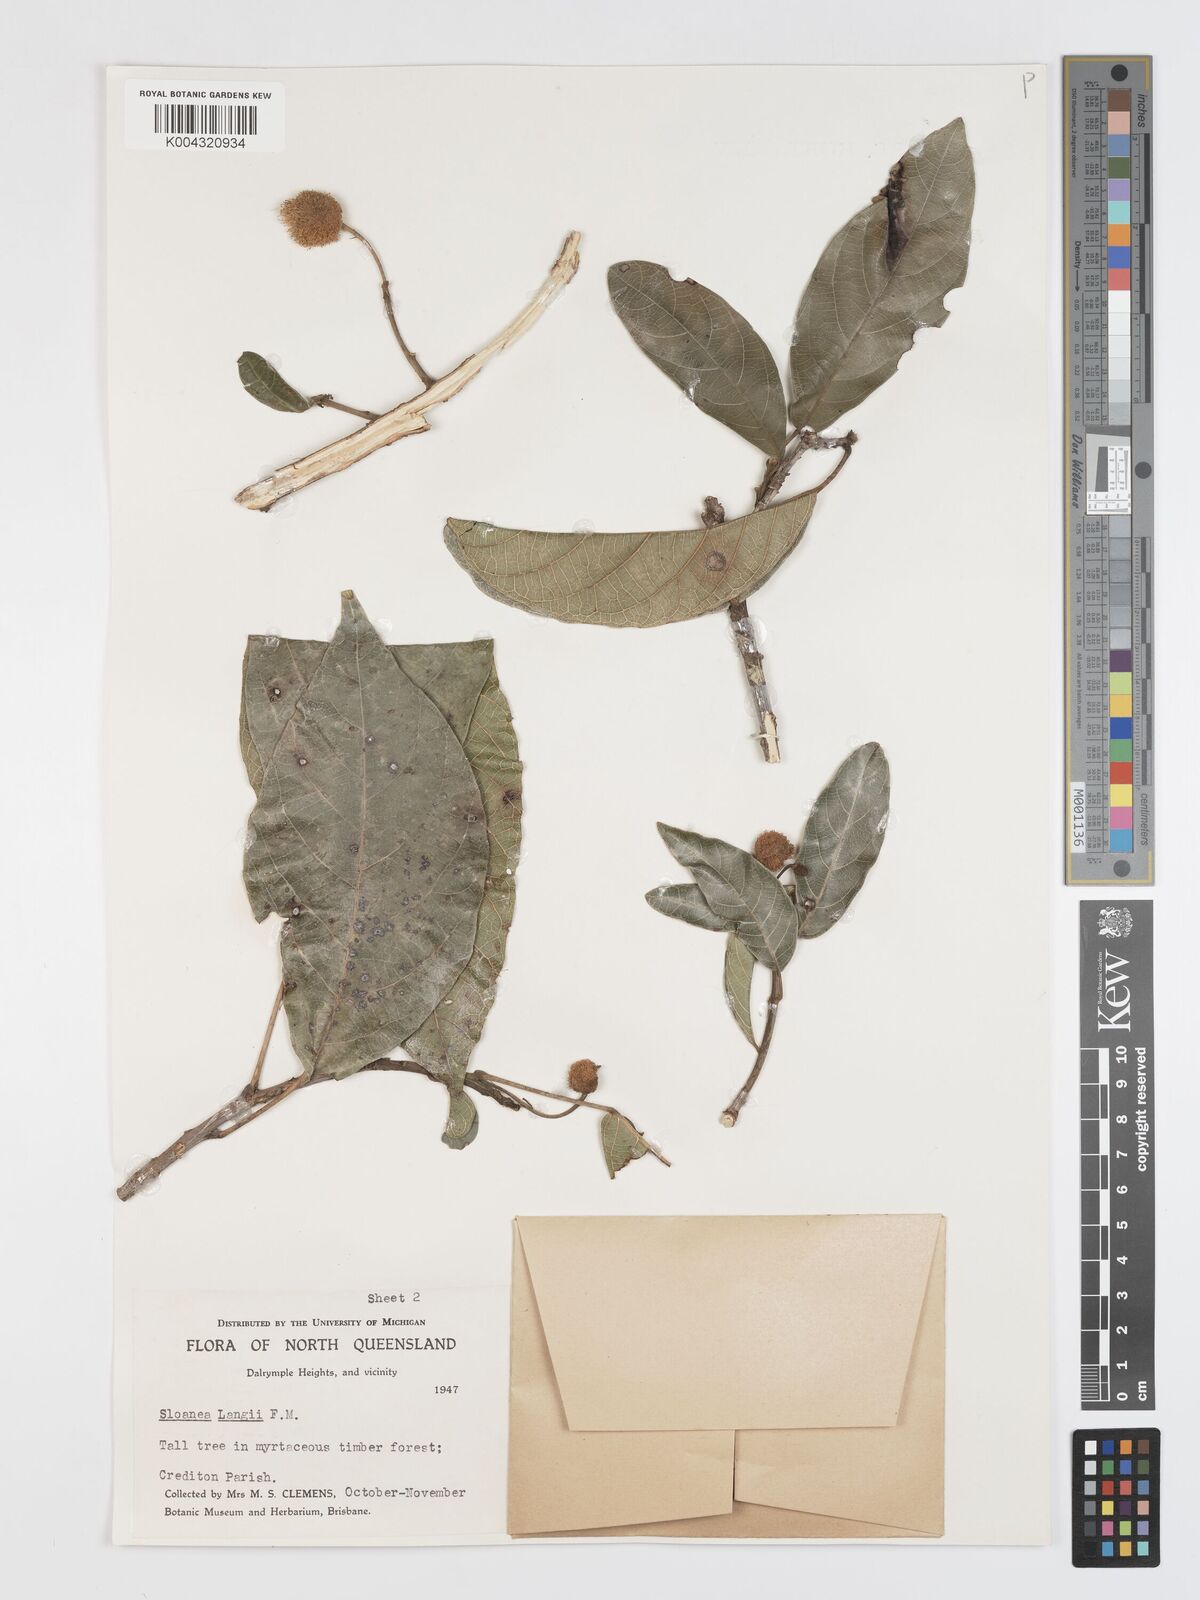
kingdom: Plantae
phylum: Tracheophyta
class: Magnoliopsida
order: Oxalidales
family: Elaeocarpaceae
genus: Sloanea
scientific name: Sloanea langii
